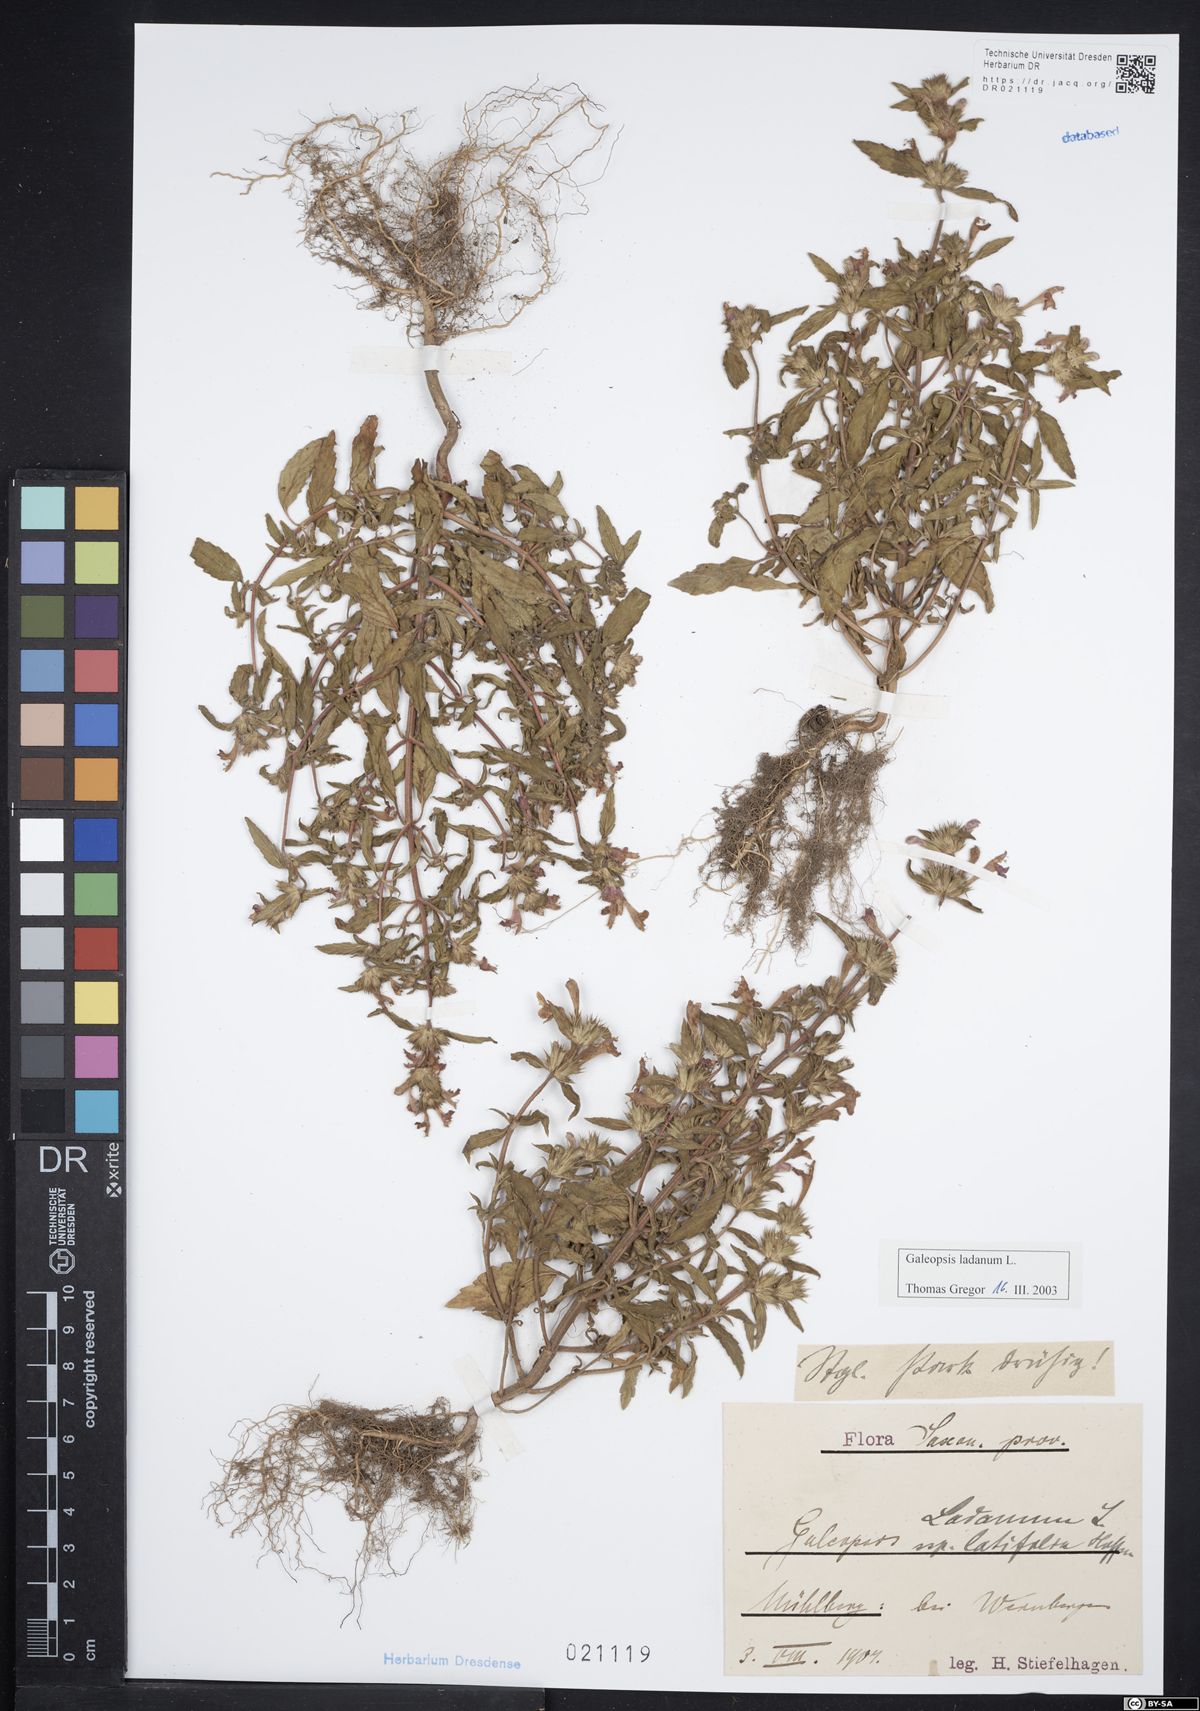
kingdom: Plantae
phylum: Tracheophyta
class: Magnoliopsida
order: Lamiales
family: Lamiaceae
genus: Galeopsis
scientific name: Galeopsis ladanum
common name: Broad-leaved hemp-nettle
